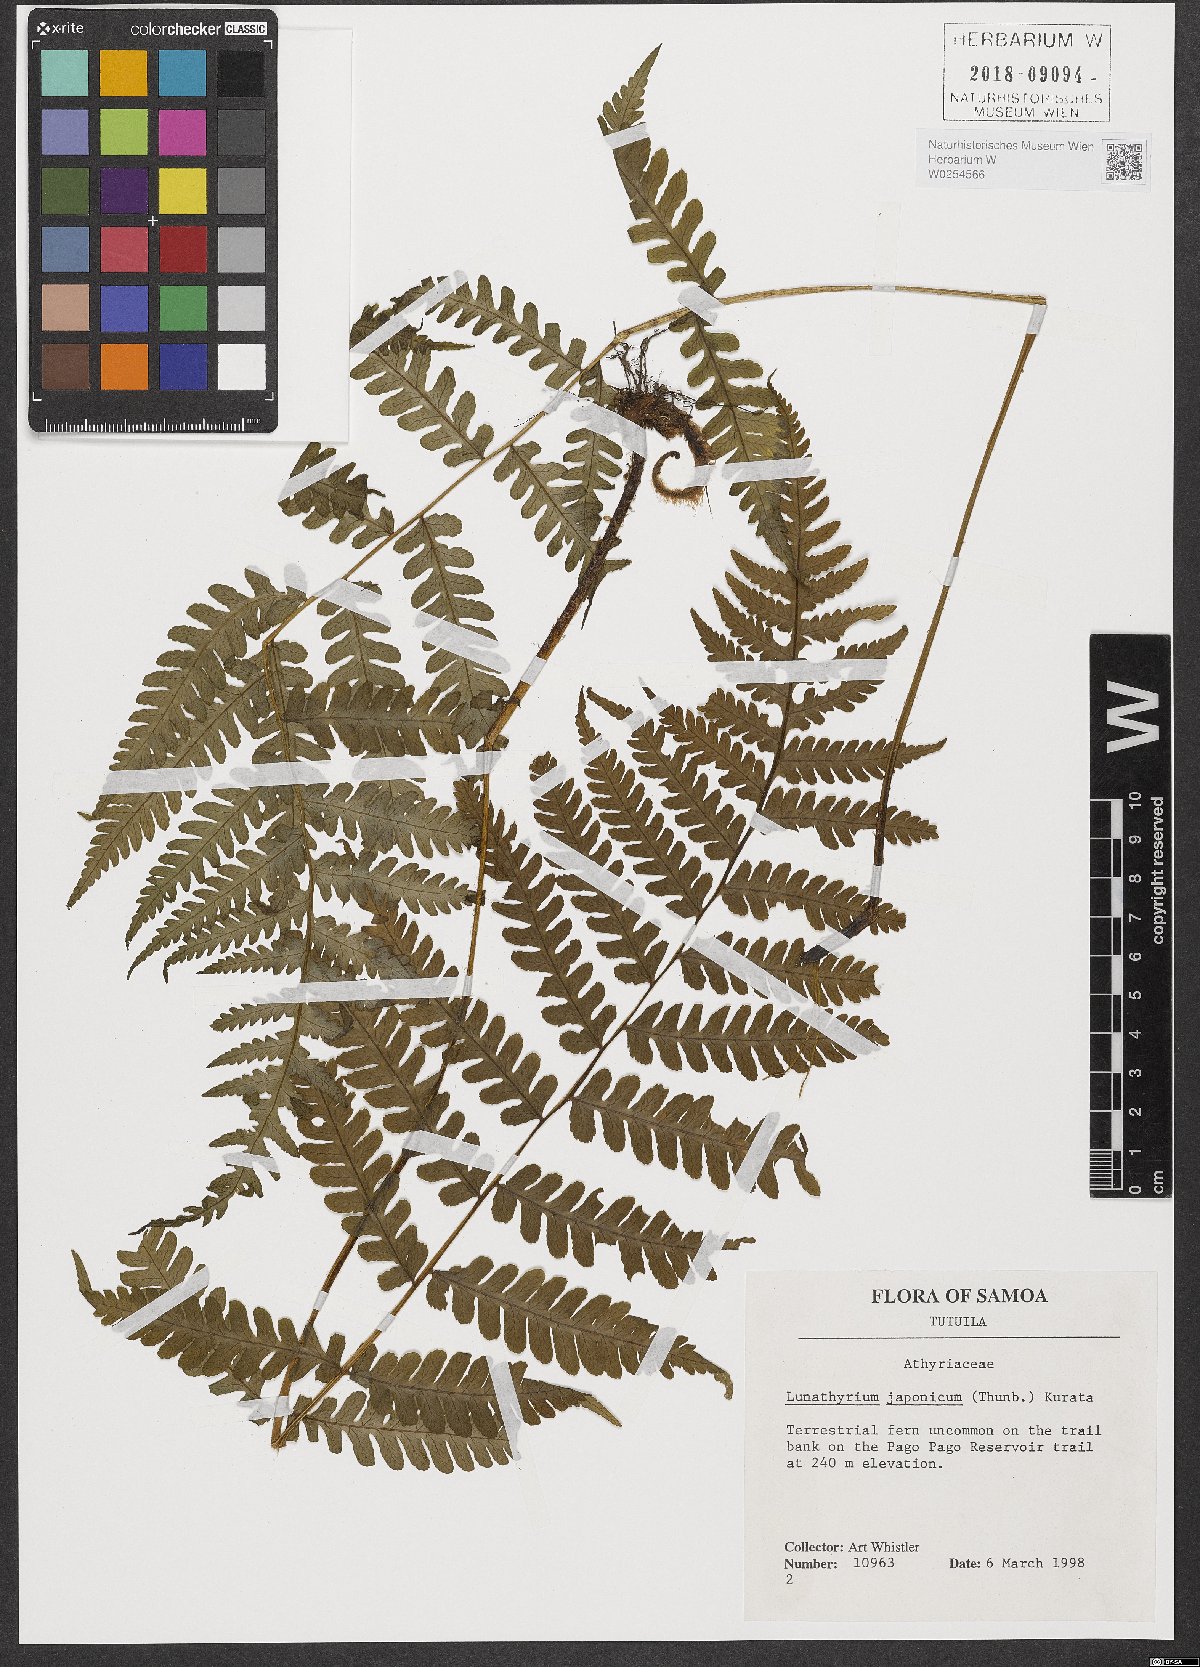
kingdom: Plantae
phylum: Tracheophyta
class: Polypodiopsida
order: Polypodiales
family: Athyriaceae
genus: Deparia
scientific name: Deparia japonica
